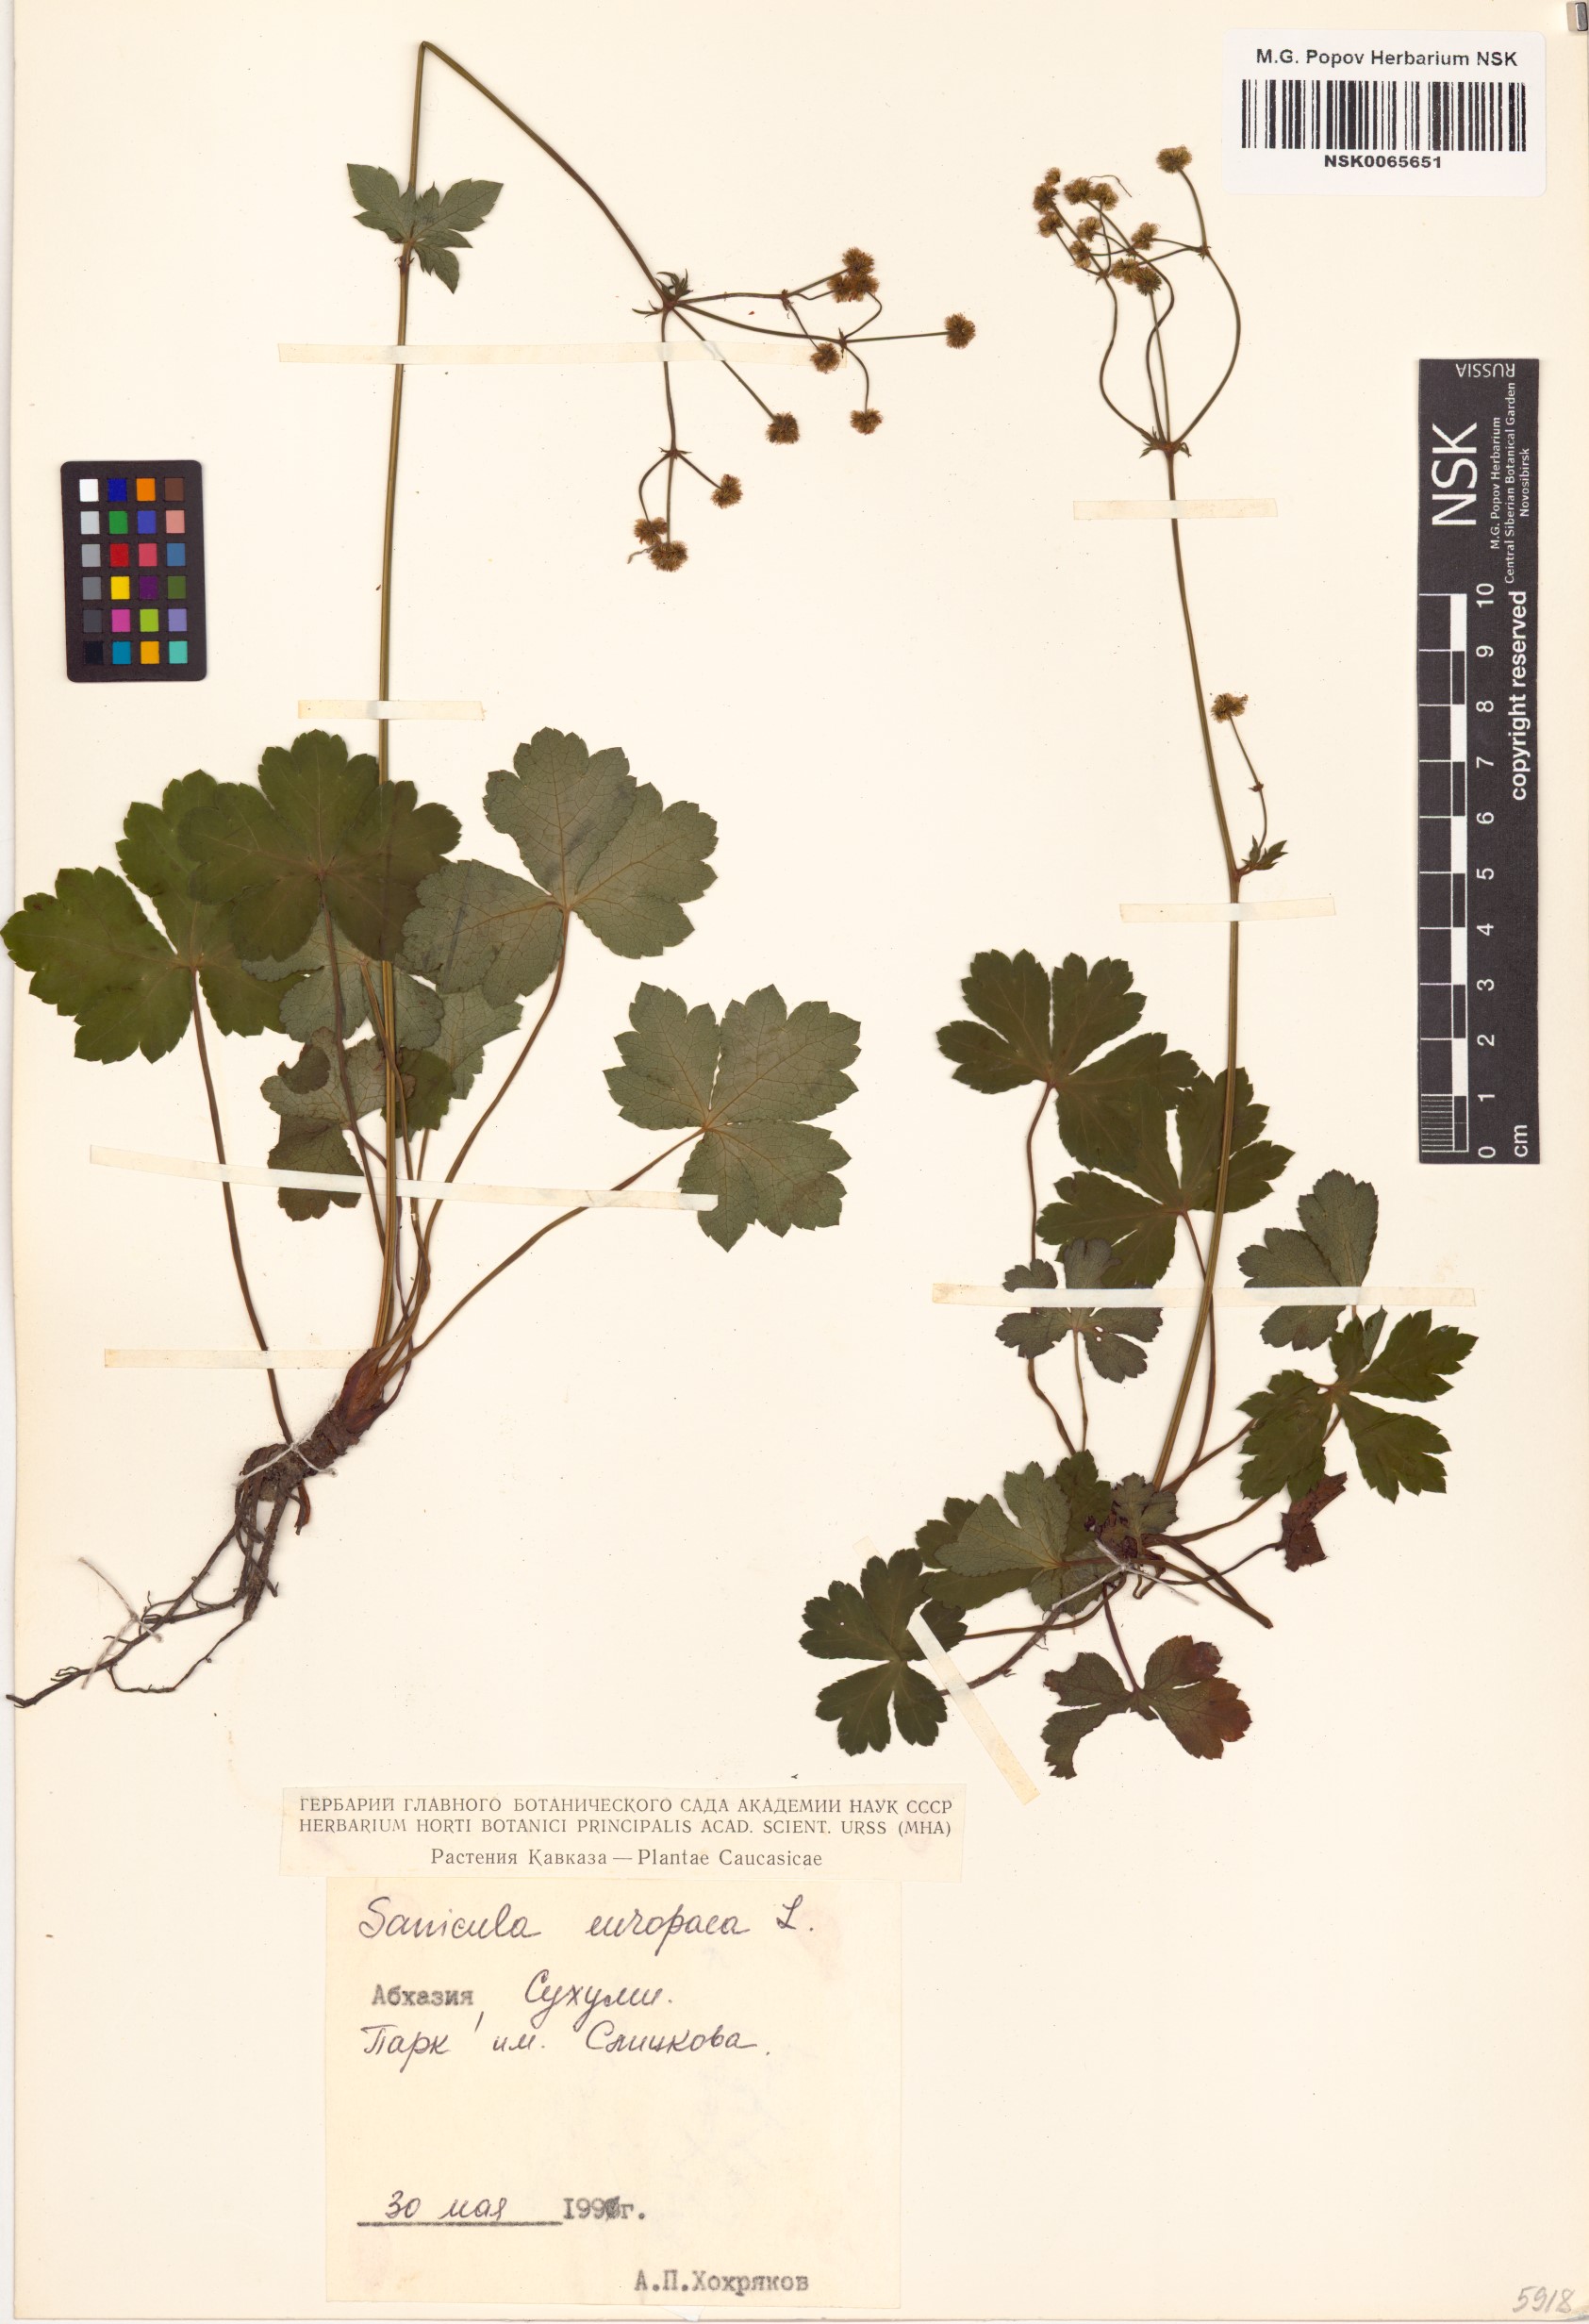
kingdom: Plantae
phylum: Tracheophyta
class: Magnoliopsida
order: Apiales
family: Apiaceae
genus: Sanicula
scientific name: Sanicula europaea
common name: Sanicle
